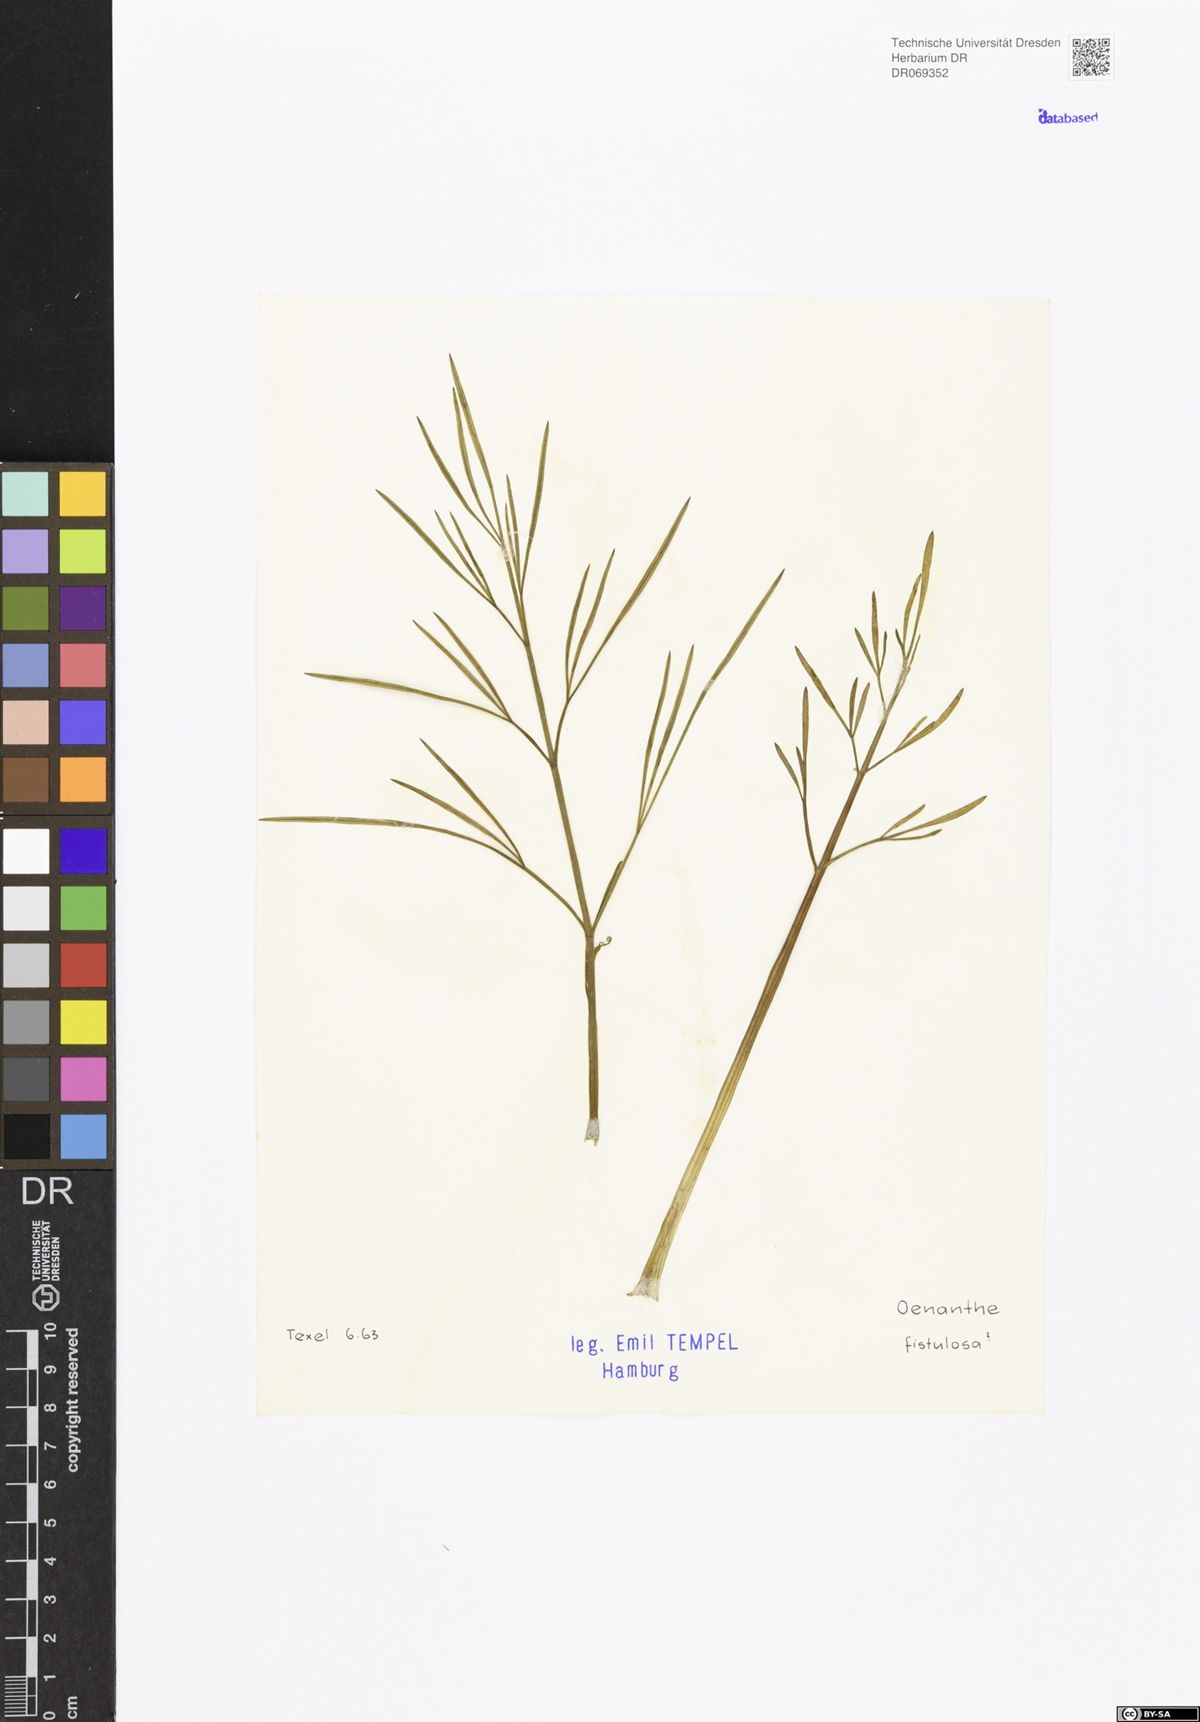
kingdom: Plantae
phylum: Tracheophyta
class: Magnoliopsida
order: Apiales
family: Apiaceae
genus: Oenanthe
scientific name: Oenanthe fistulosa
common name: Tubular water-dropwort
